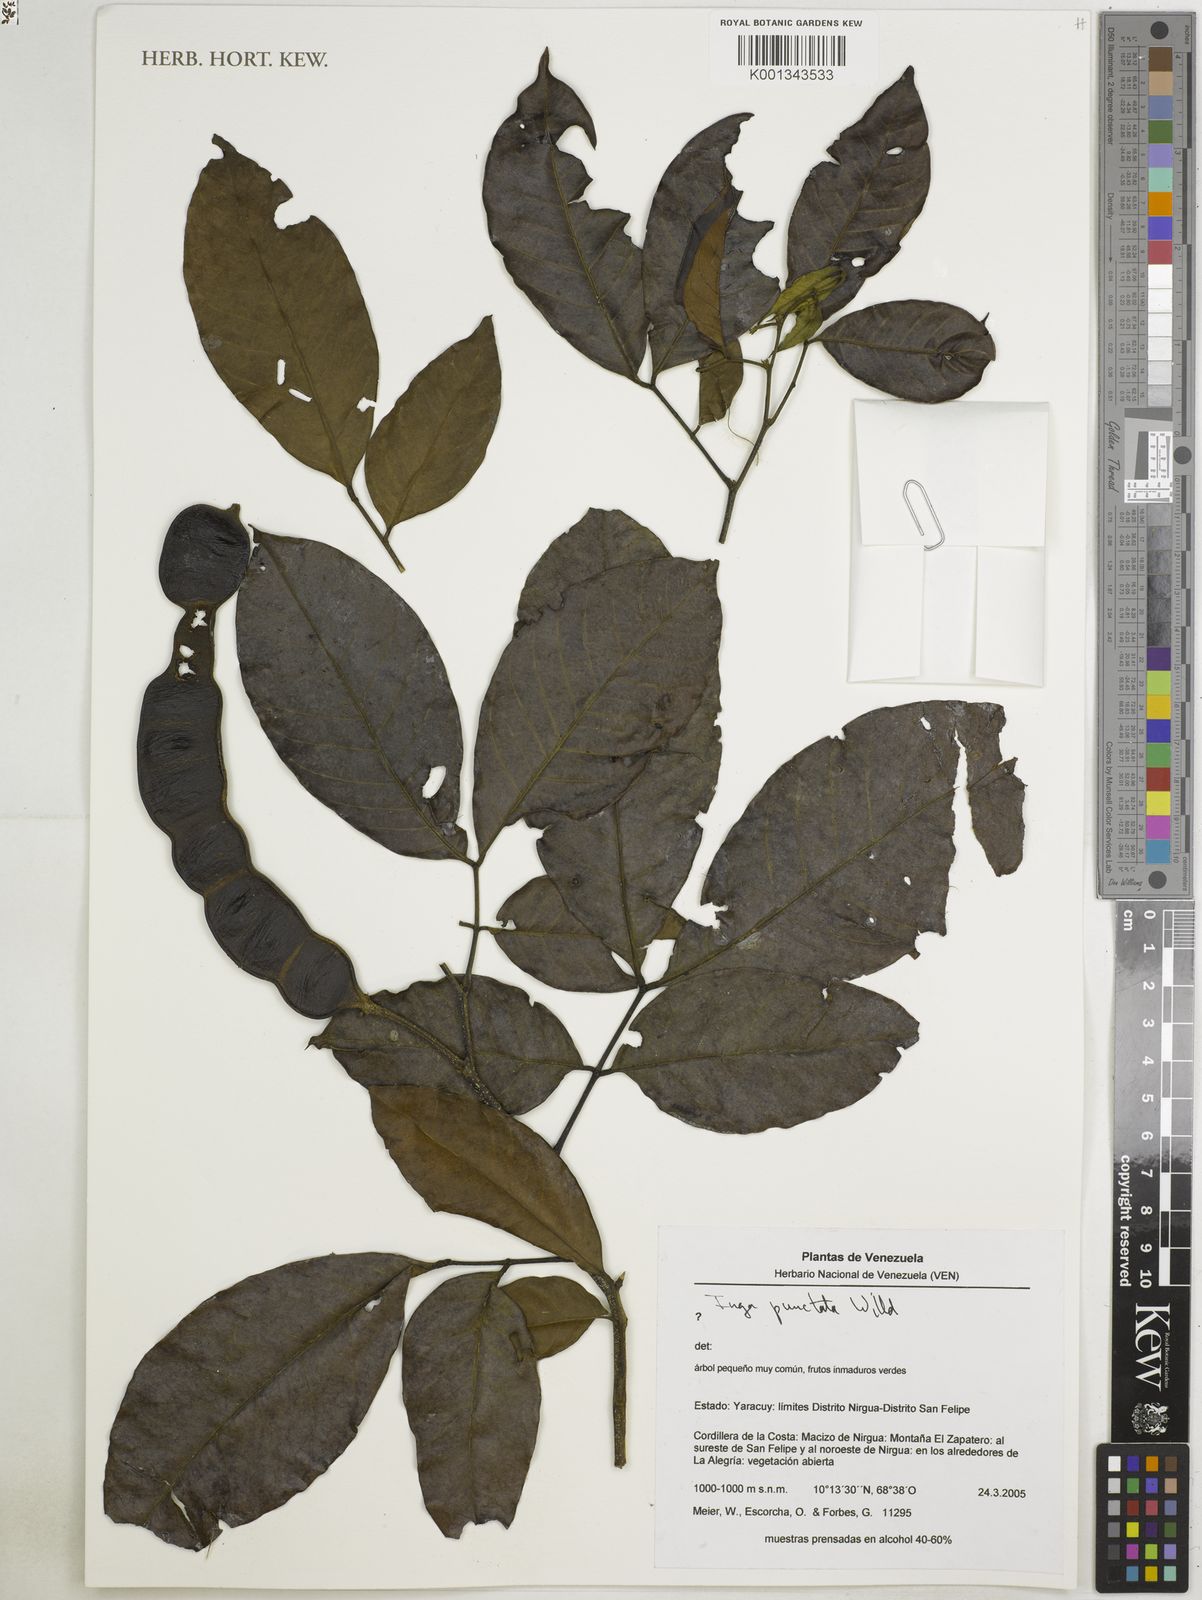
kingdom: Plantae
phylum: Tracheophyta
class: Magnoliopsida
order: Fabales
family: Fabaceae
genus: Inga
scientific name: Inga punctata
